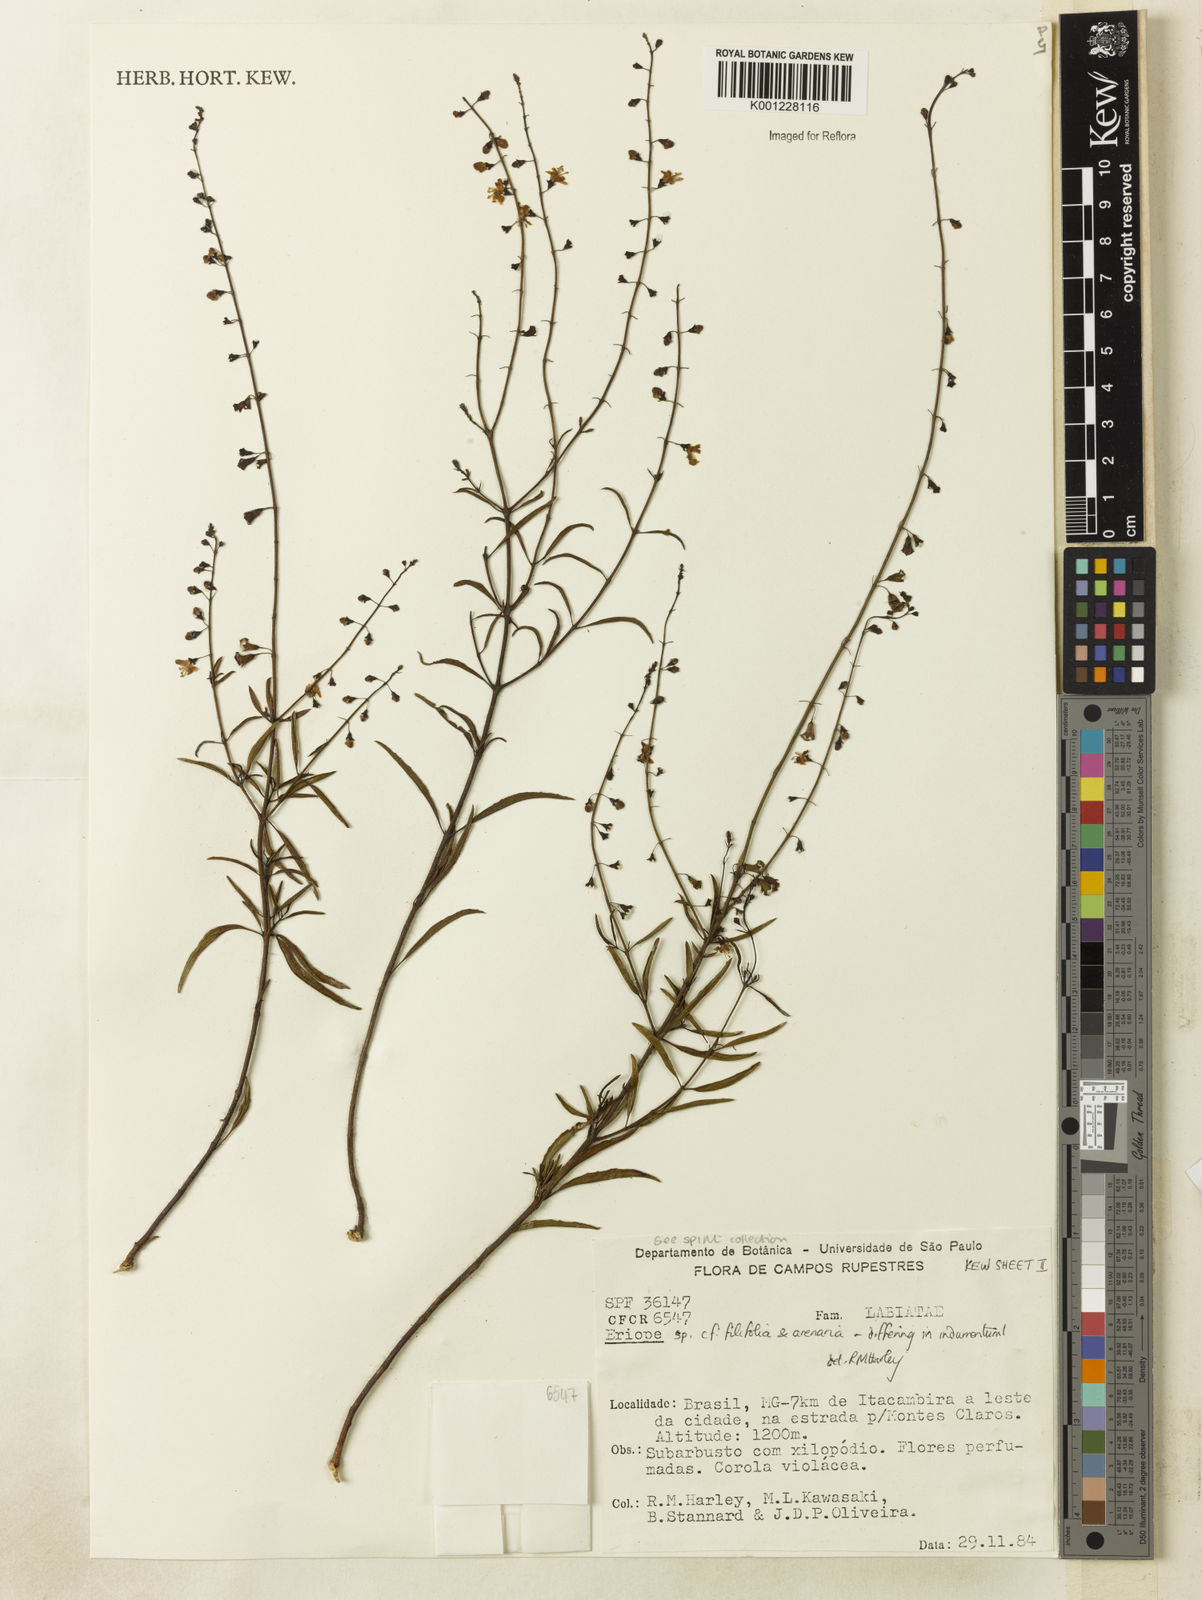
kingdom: Plantae
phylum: Tracheophyta
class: Magnoliopsida
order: Lamiales
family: Lamiaceae
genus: Eriope
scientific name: Eriope
